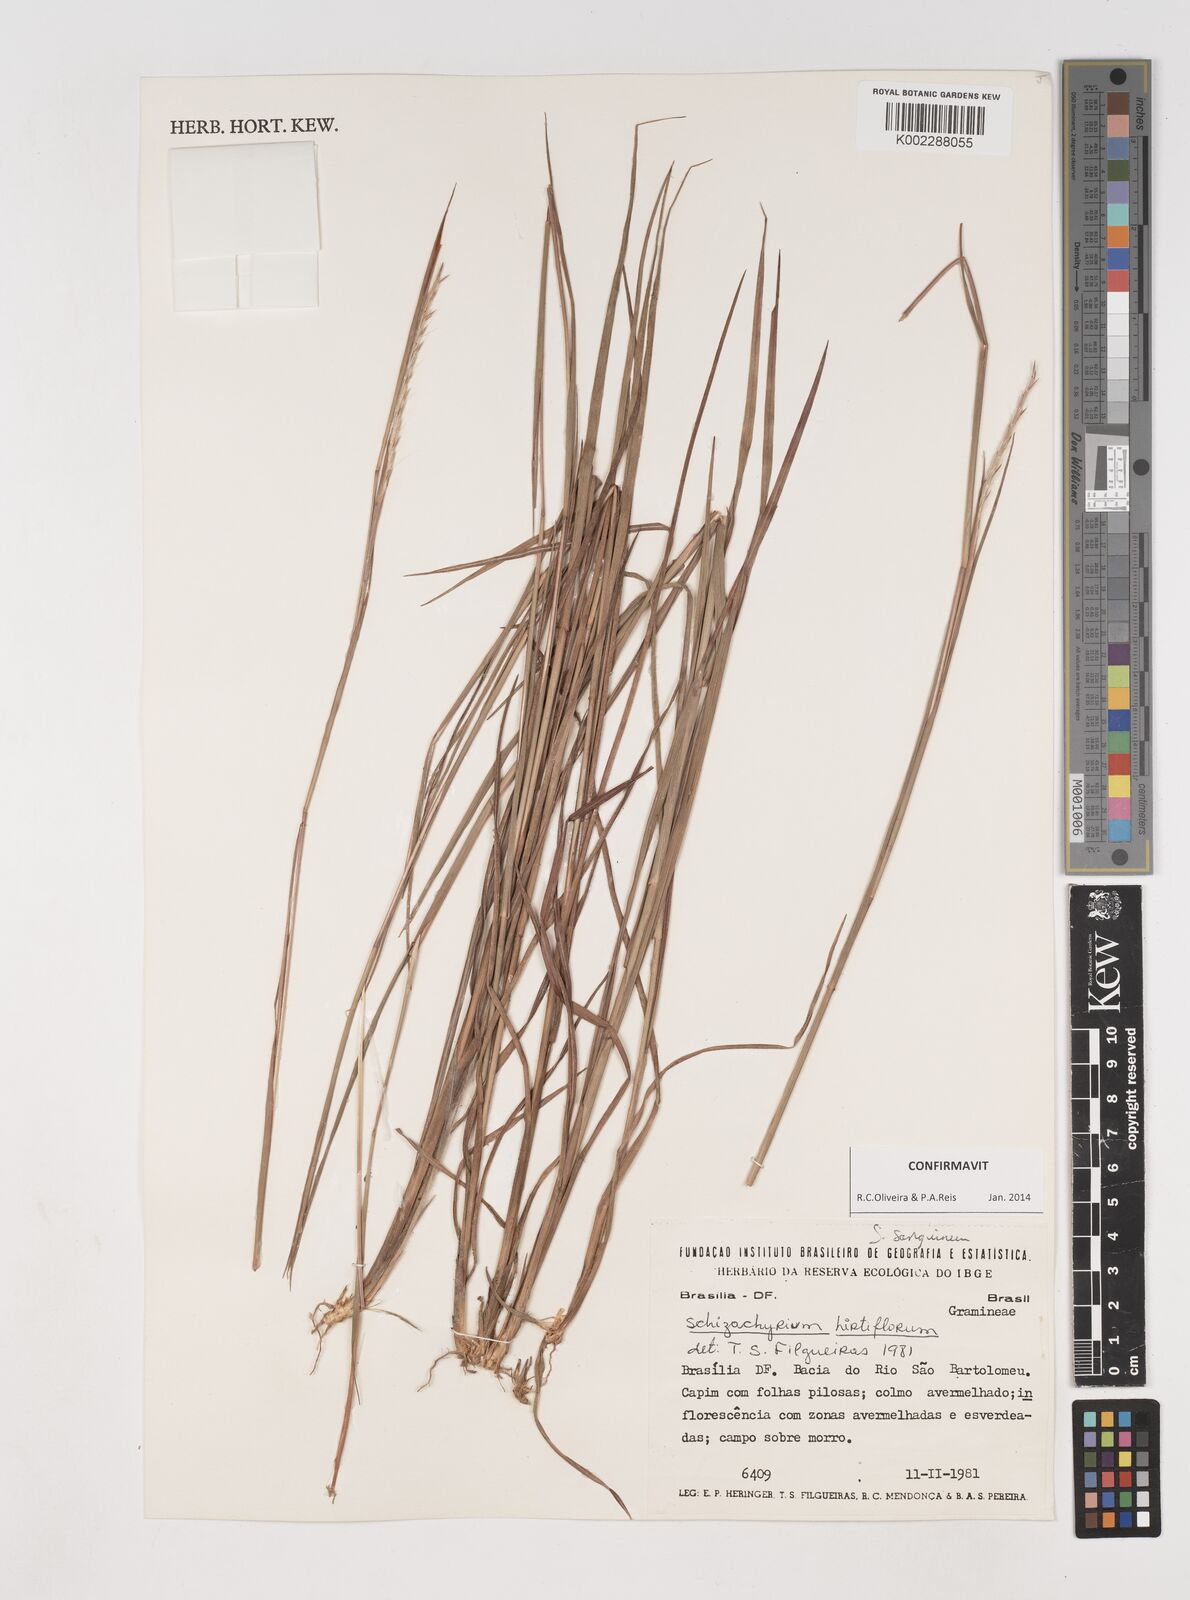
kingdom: Plantae
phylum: Tracheophyta
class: Liliopsida
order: Poales
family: Poaceae
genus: Schizachyrium
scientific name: Schizachyrium sanguineum
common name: Crimson bluestem
